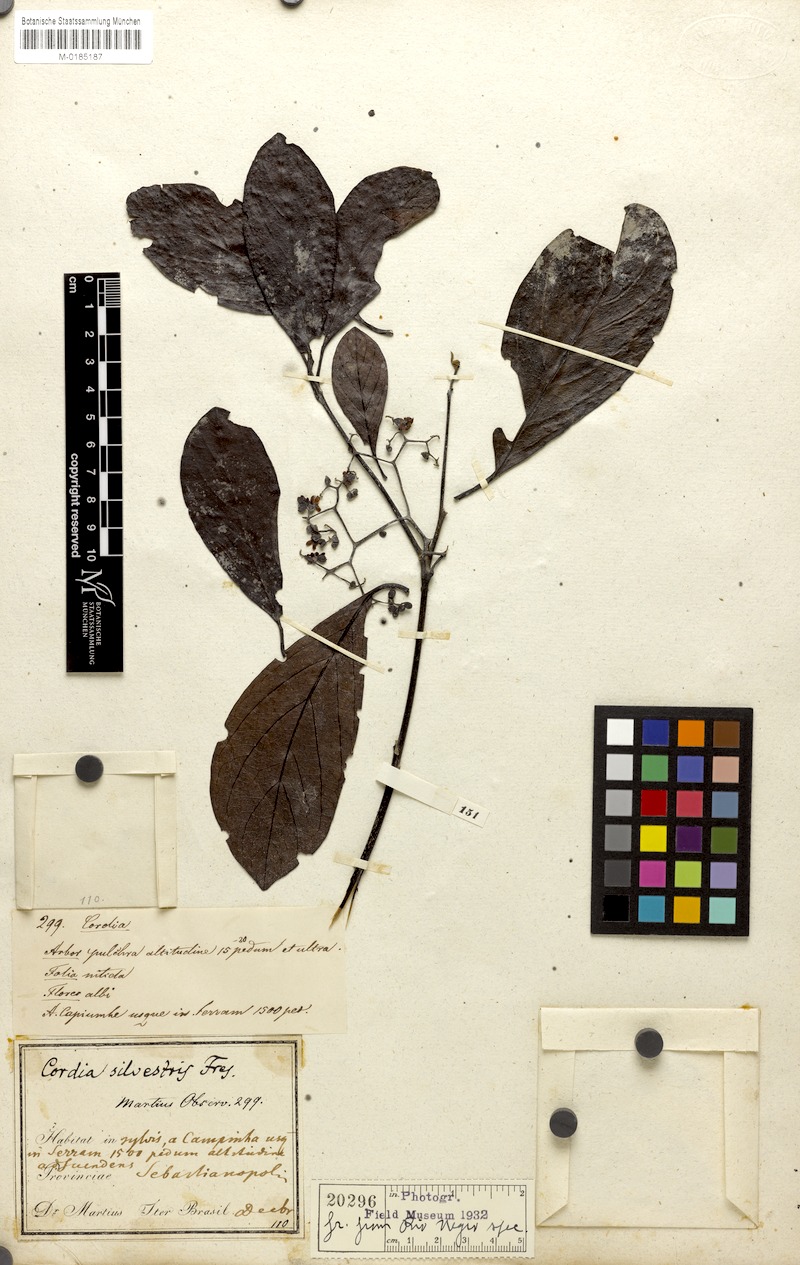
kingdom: Plantae
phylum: Tracheophyta
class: Magnoliopsida
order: Boraginales
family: Cordiaceae
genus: Cordia
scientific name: Cordia silvestris
